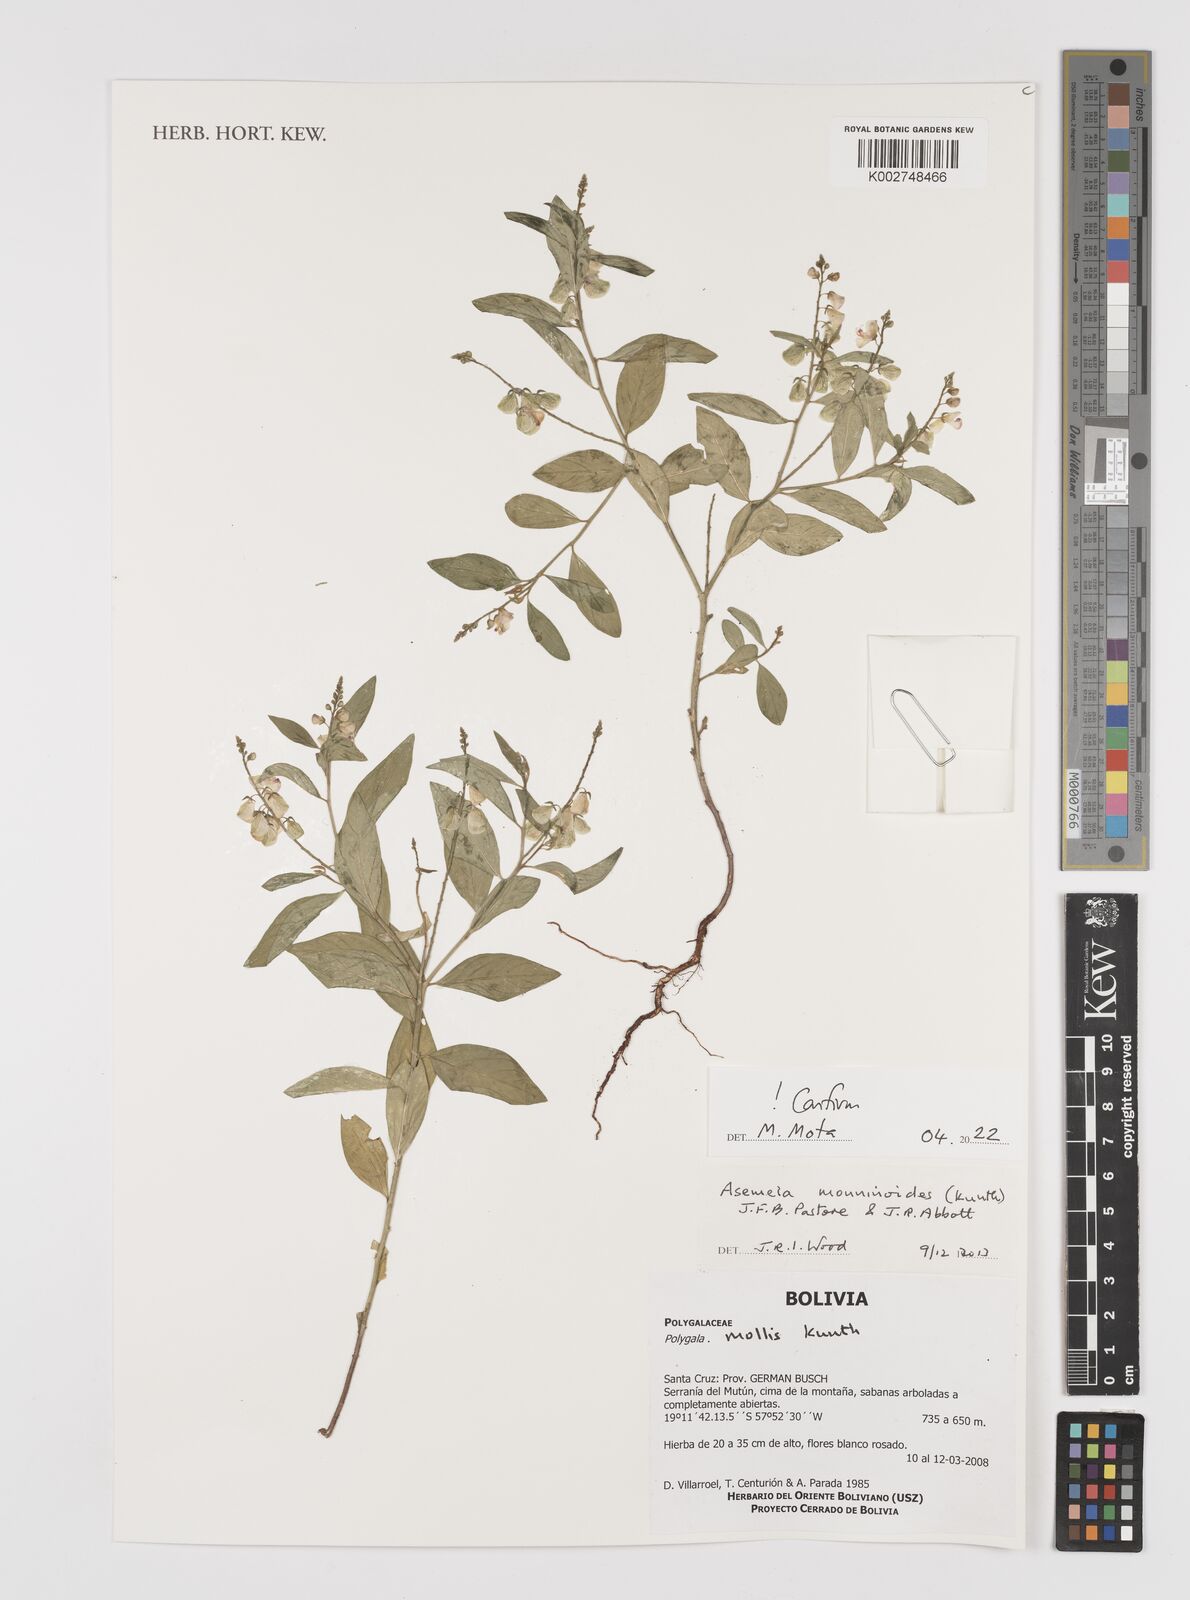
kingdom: Plantae
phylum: Tracheophyta
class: Magnoliopsida
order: Fabales
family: Polygalaceae
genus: Asemeia
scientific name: Asemeia monninoides
